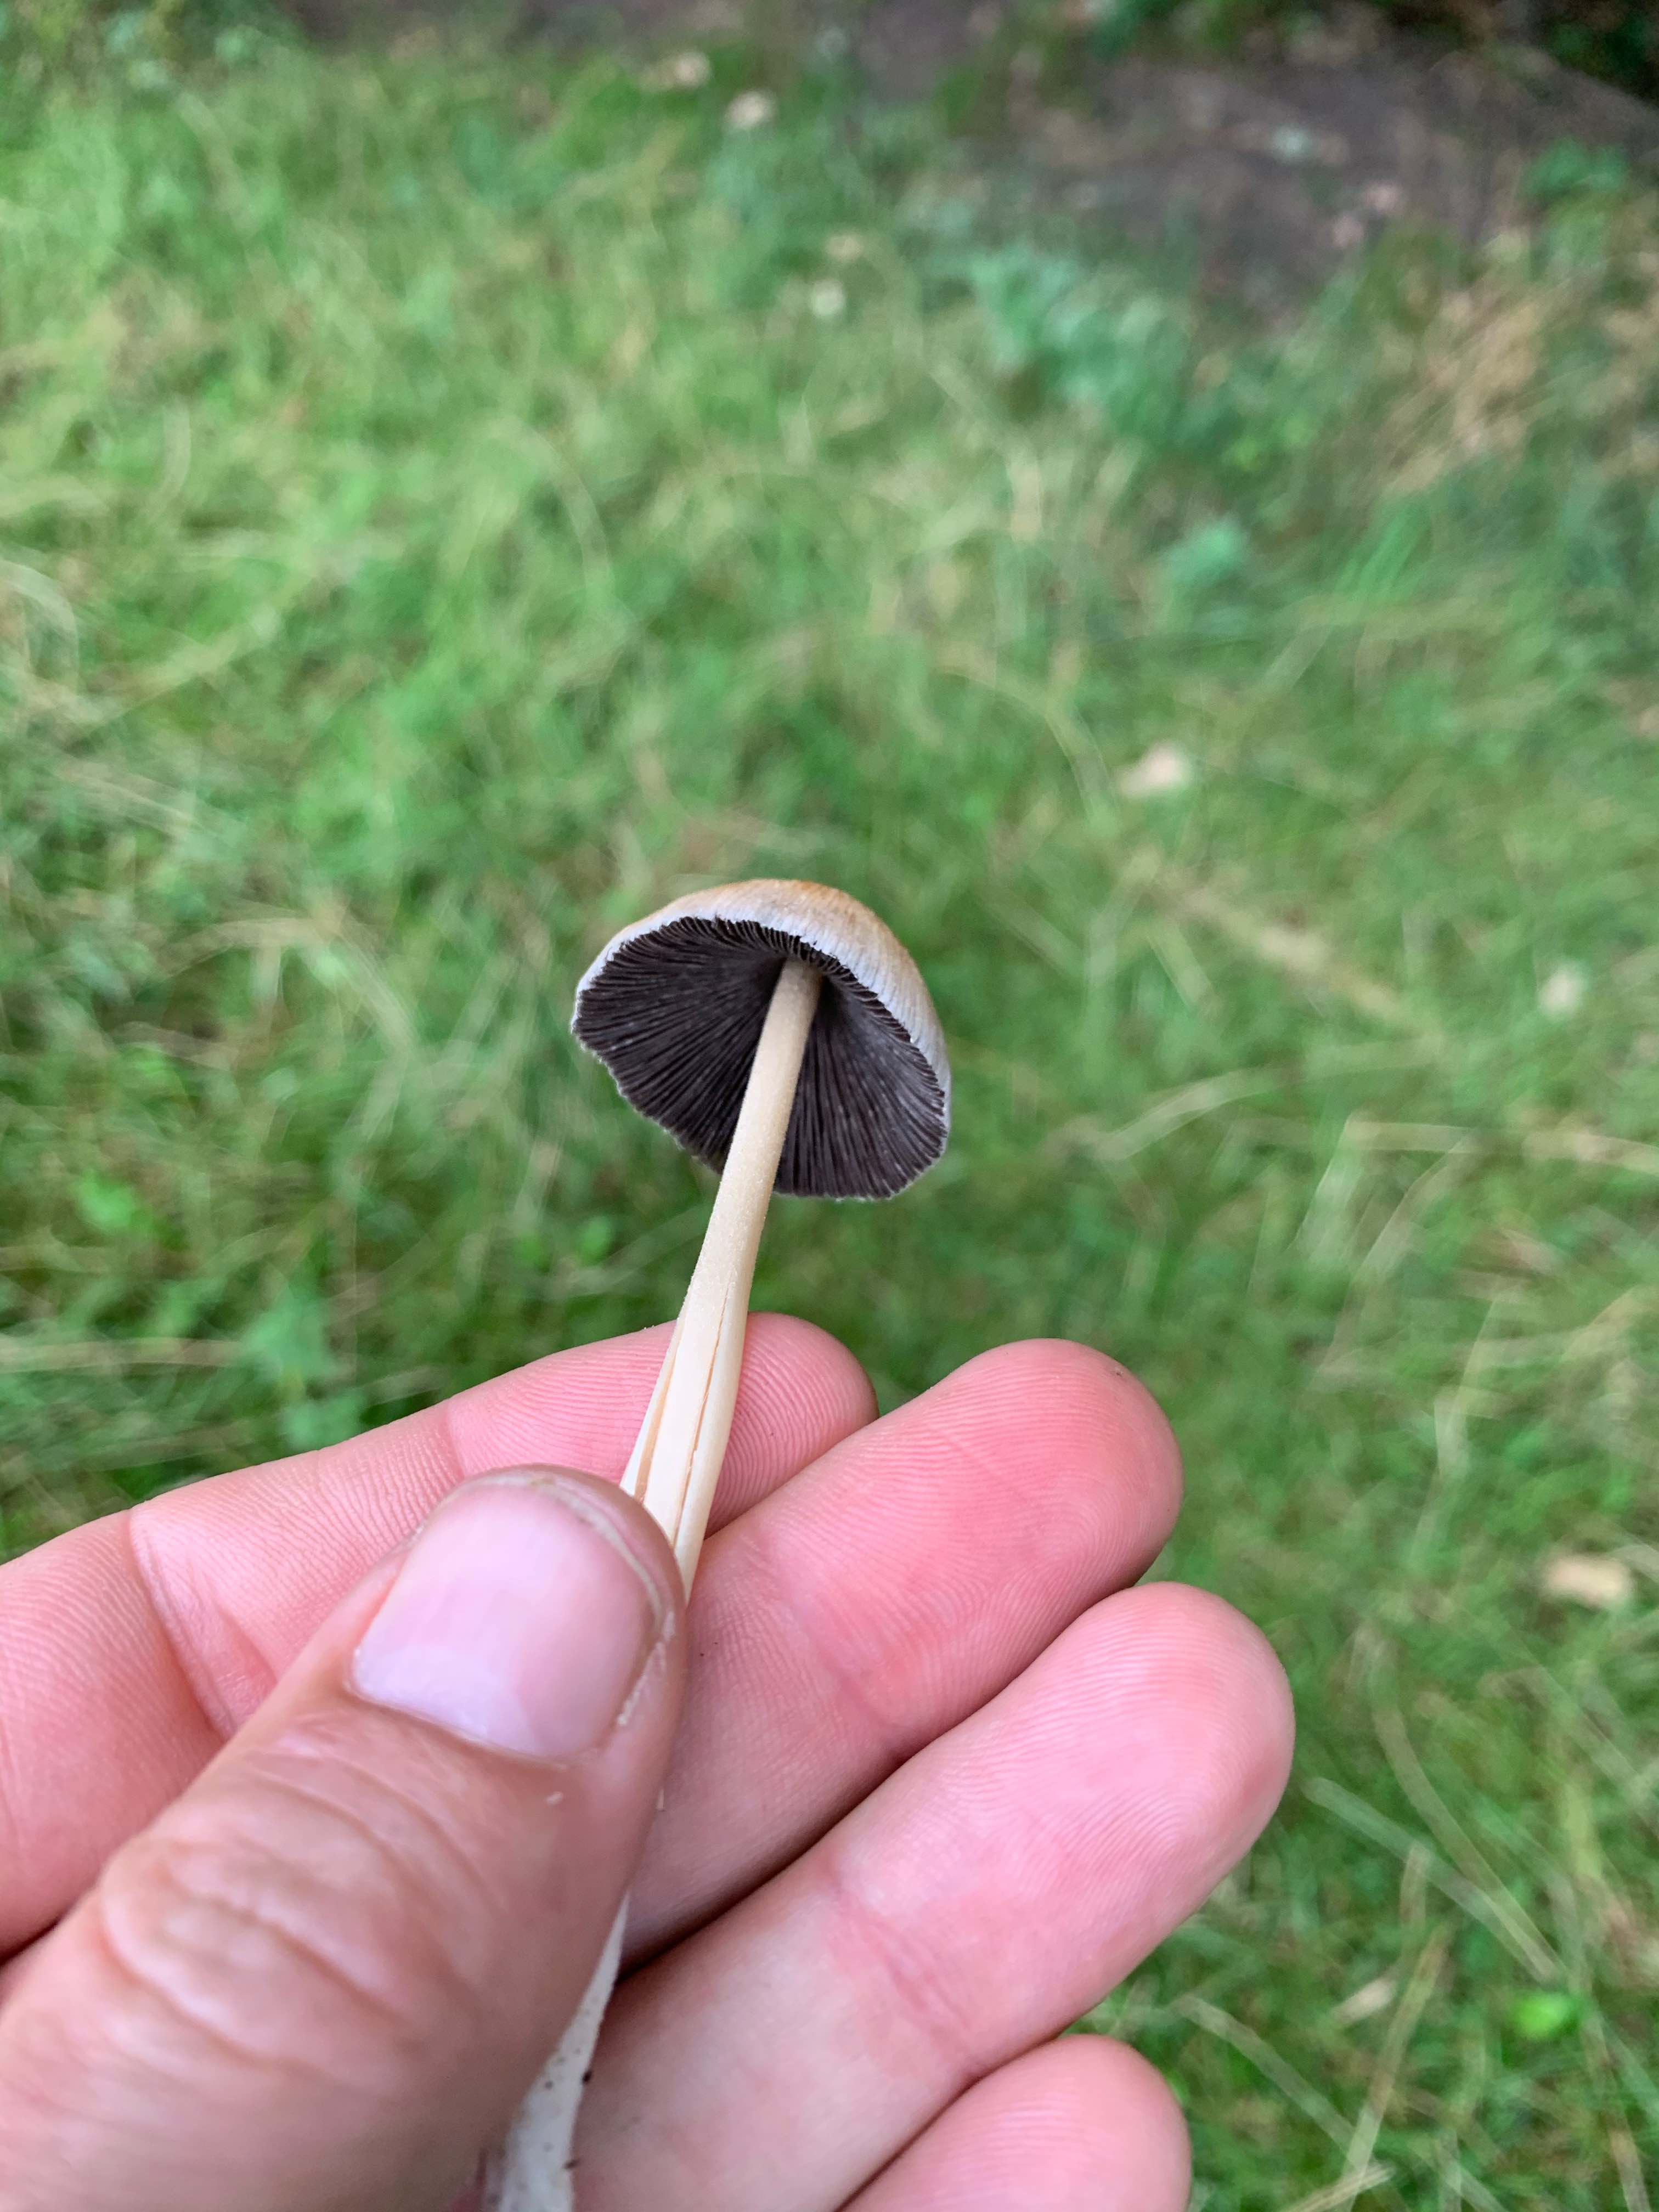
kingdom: Fungi
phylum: Basidiomycota
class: Agaricomycetes
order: Agaricales
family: Psathyrellaceae
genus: Coprinellus
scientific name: Coprinellus micaceus
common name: glimmer-blækhat
